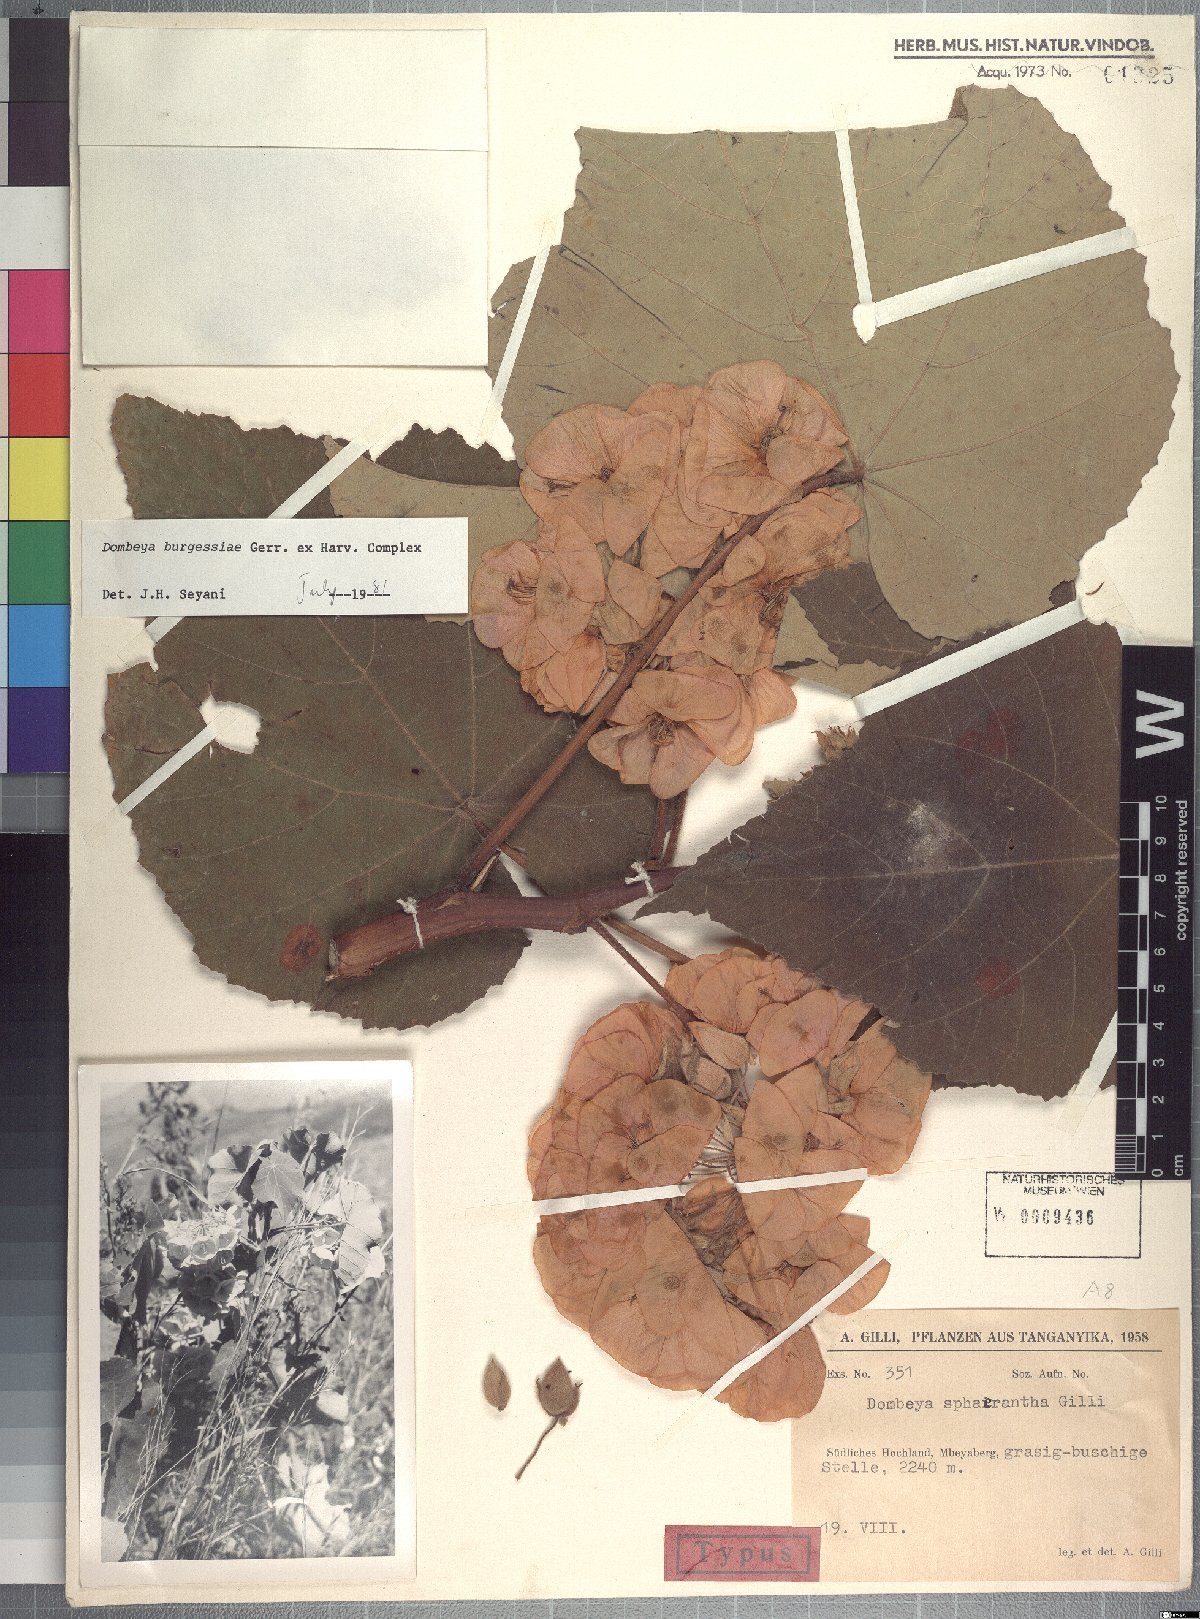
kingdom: Plantae
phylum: Tracheophyta
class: Magnoliopsida
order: Malvales
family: Malvaceae
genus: Dombeya
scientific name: Dombeya
